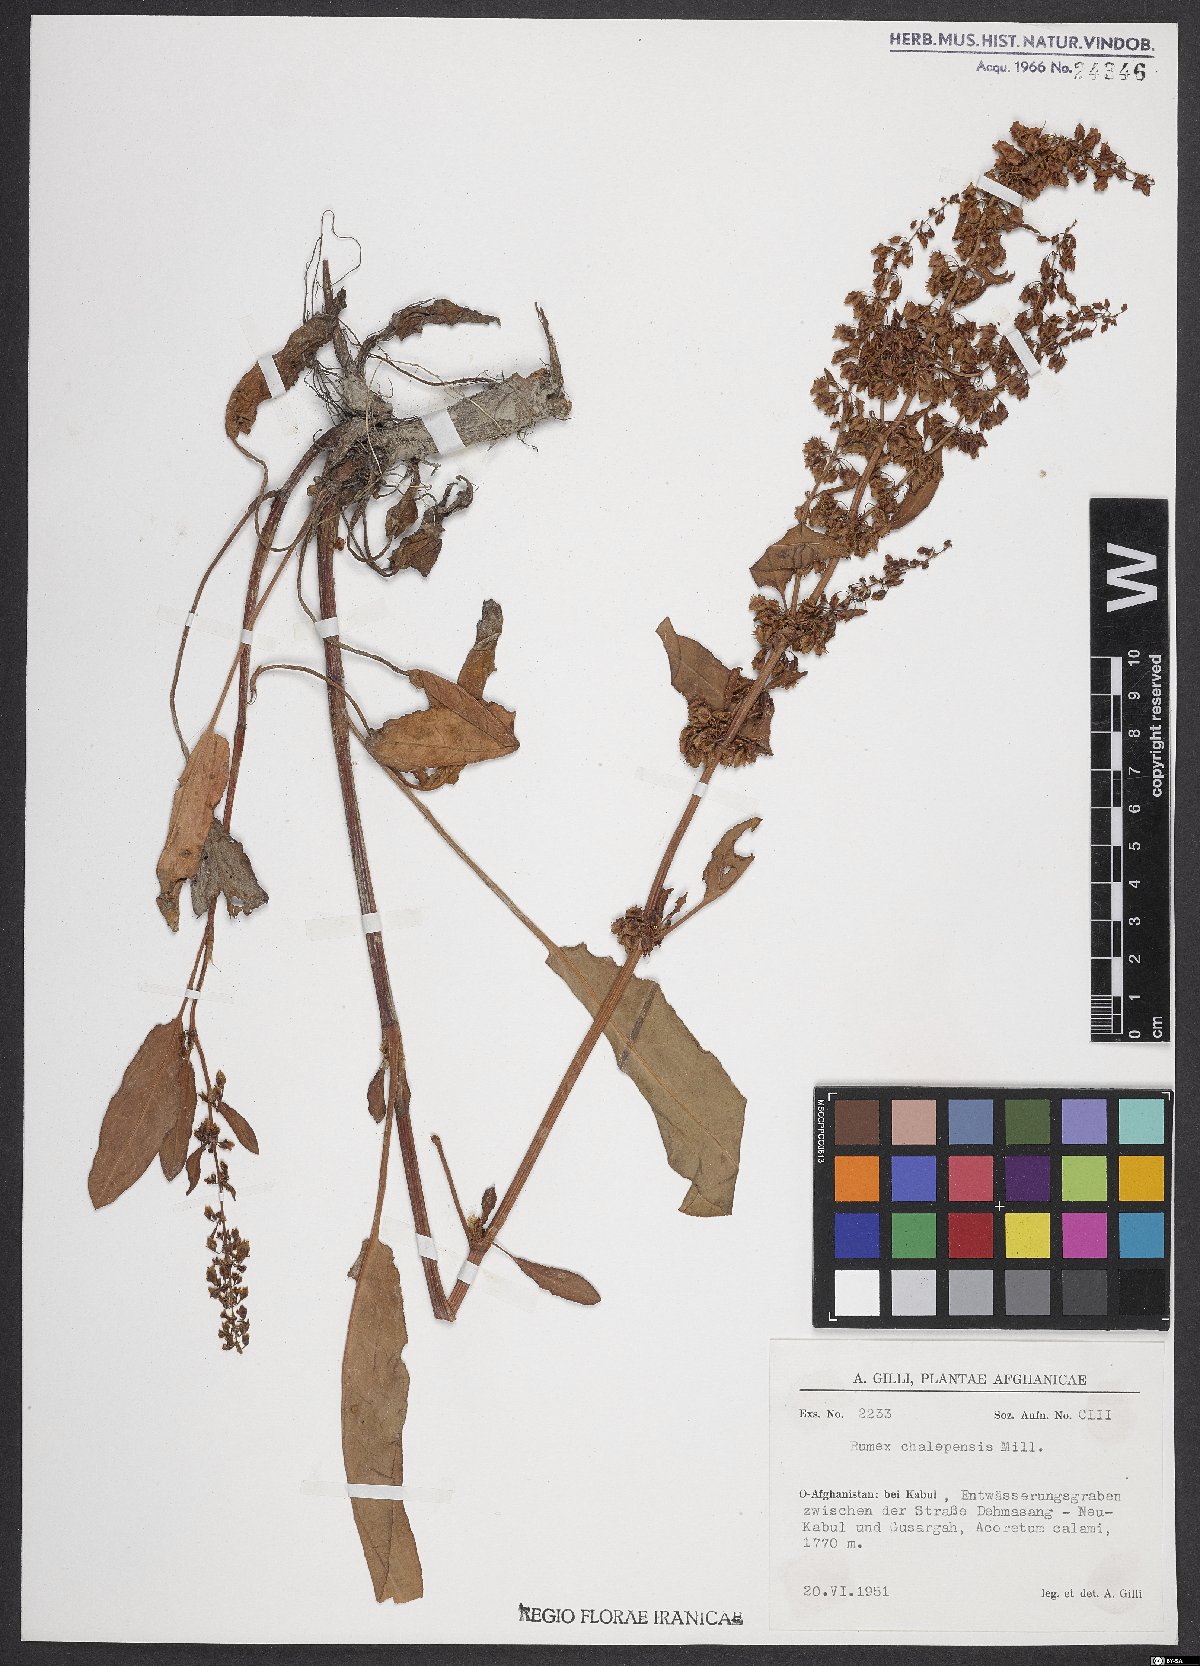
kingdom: Plantae
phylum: Tracheophyta
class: Magnoliopsida
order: Caryophyllales
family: Polygonaceae
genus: Rumex
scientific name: Rumex chalepensis
